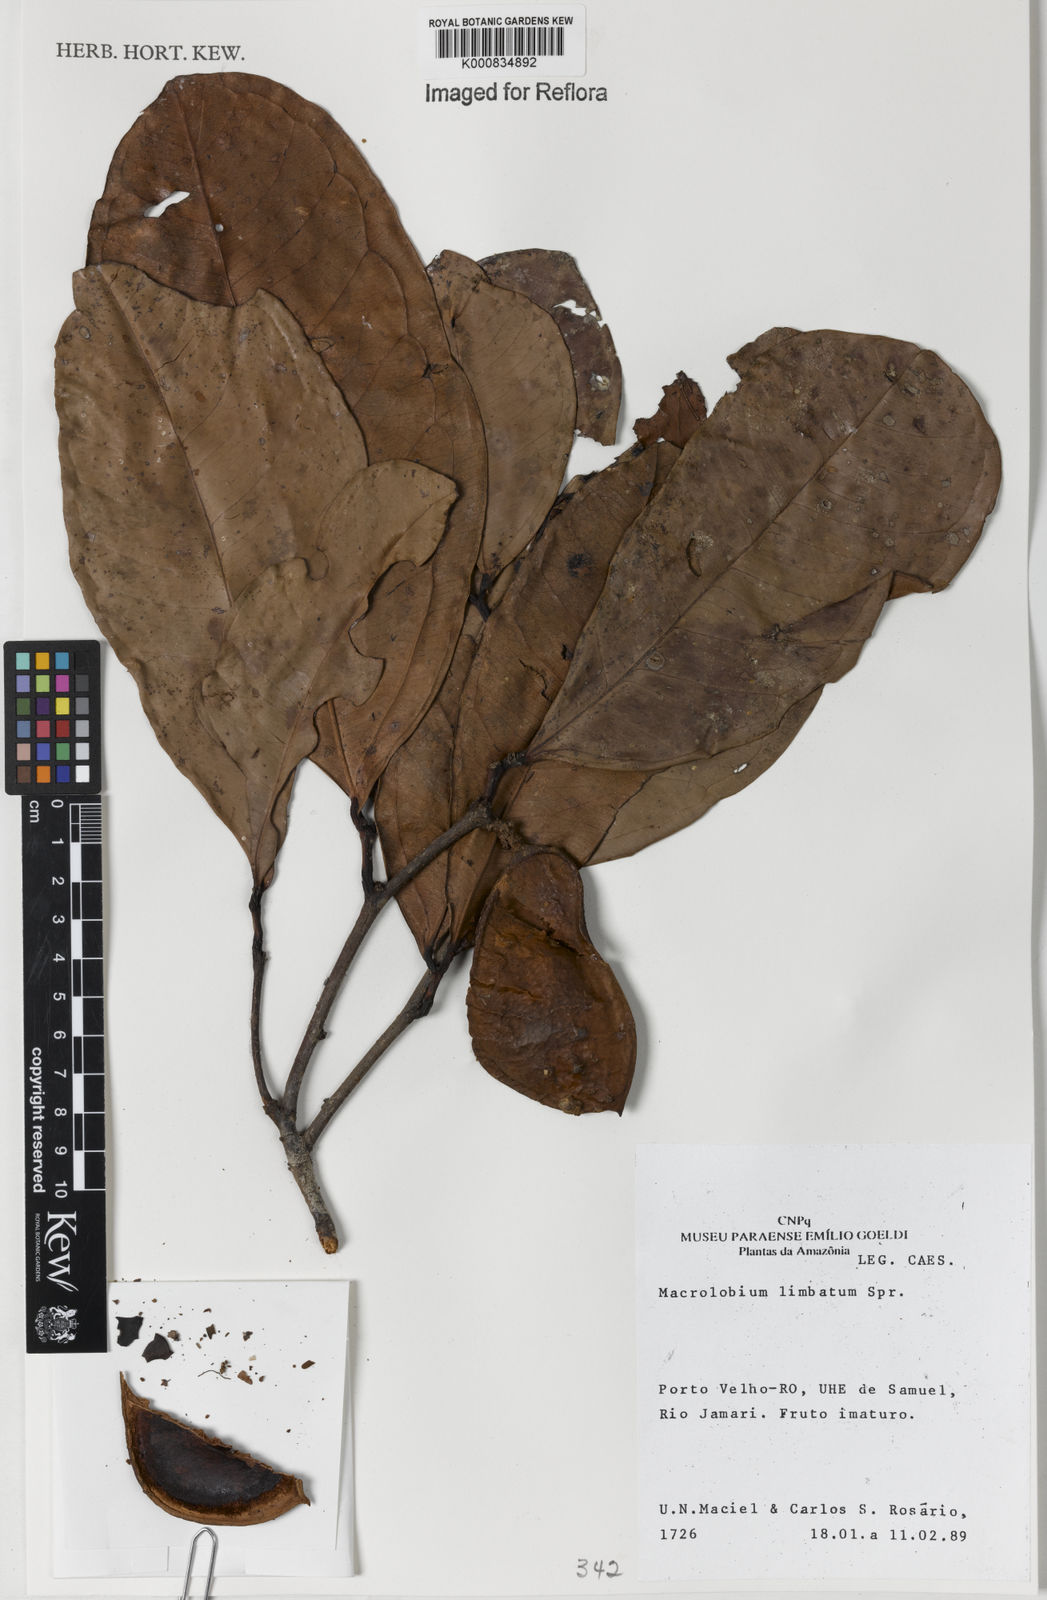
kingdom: Plantae
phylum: Tracheophyta
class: Magnoliopsida
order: Fabales
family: Fabaceae
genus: Macrolobium
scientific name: Macrolobium limbatum
